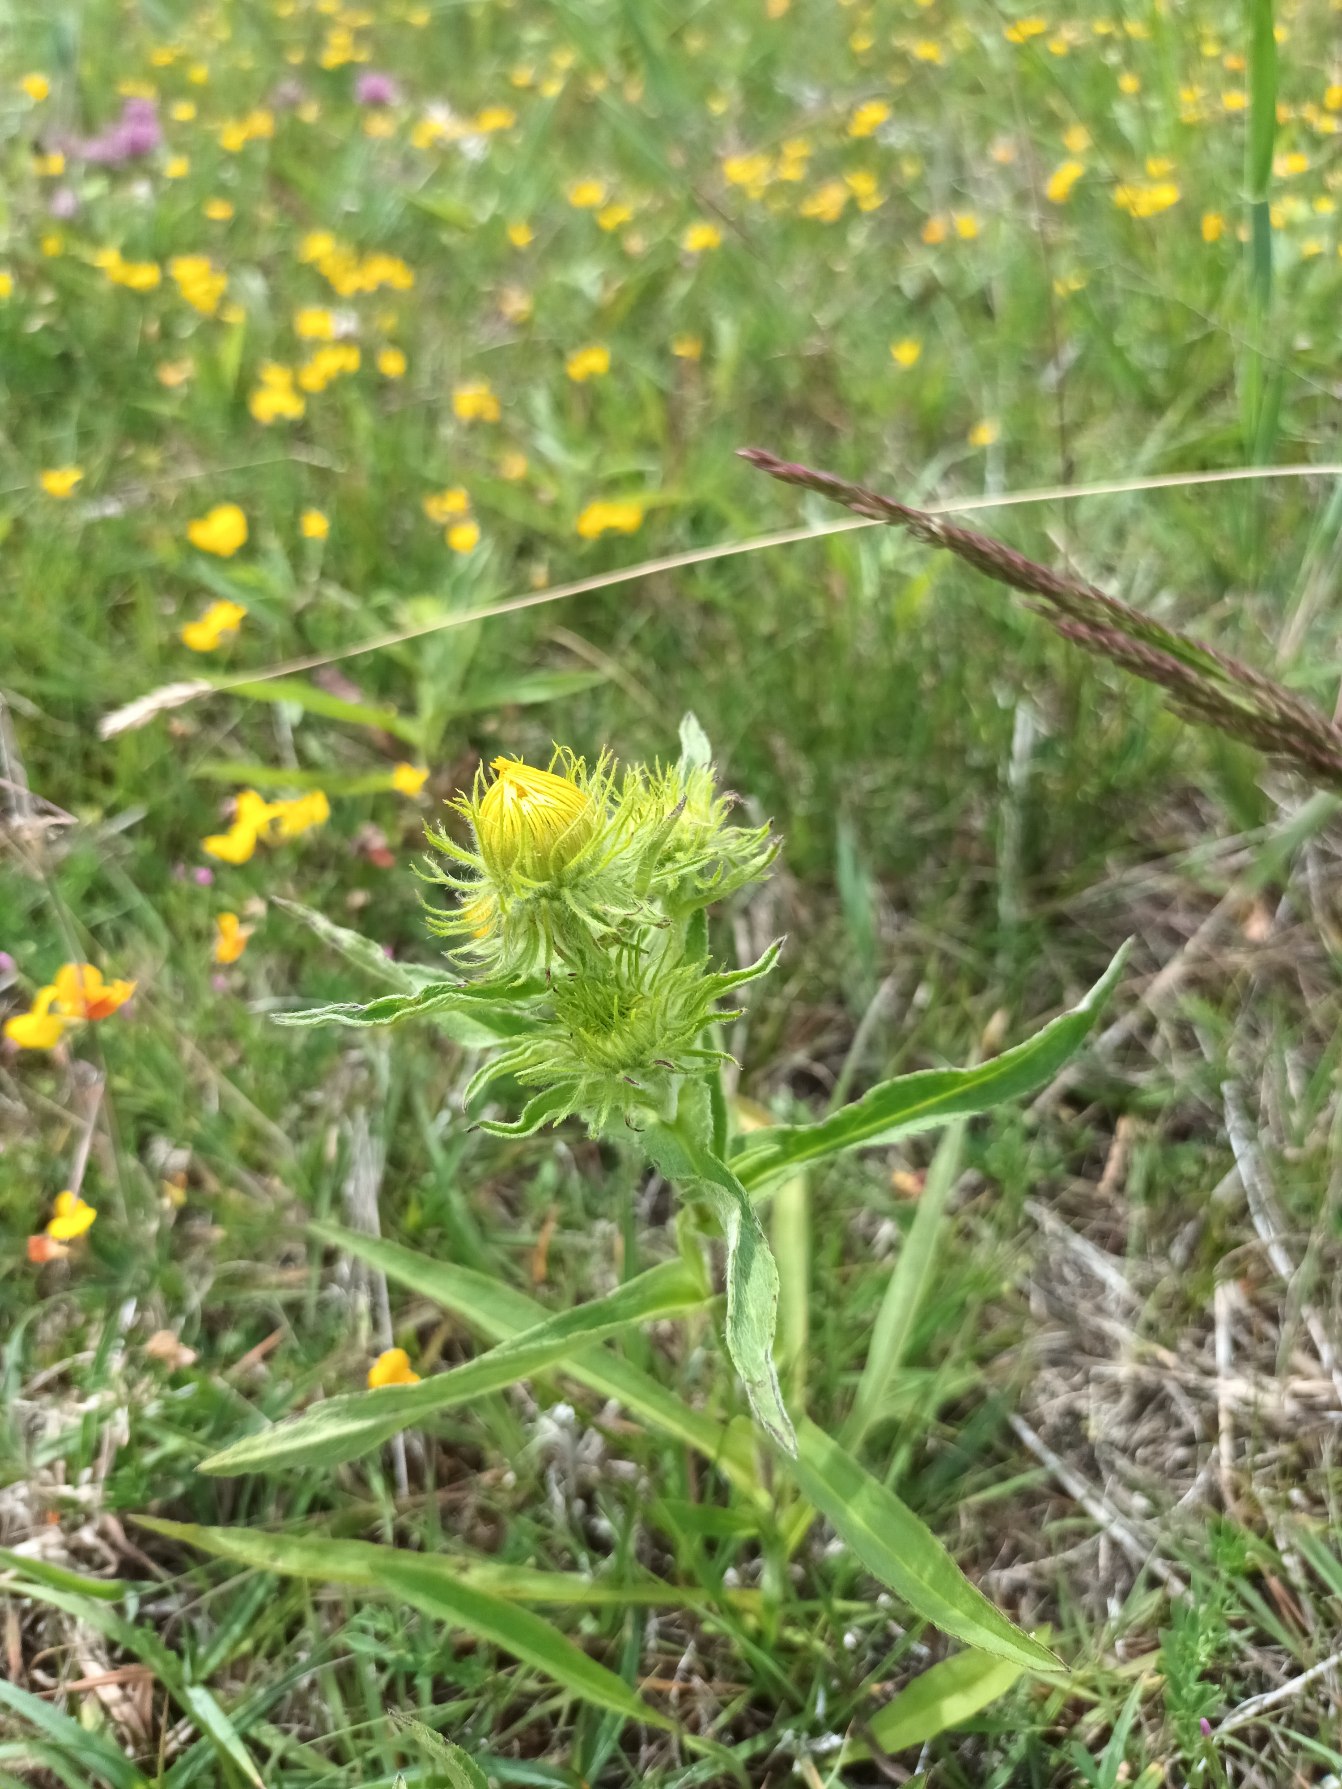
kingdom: Plantae
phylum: Tracheophyta
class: Magnoliopsida
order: Asterales
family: Asteraceae
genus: Pentanema
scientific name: Pentanema britannicum
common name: Soløje-alant
